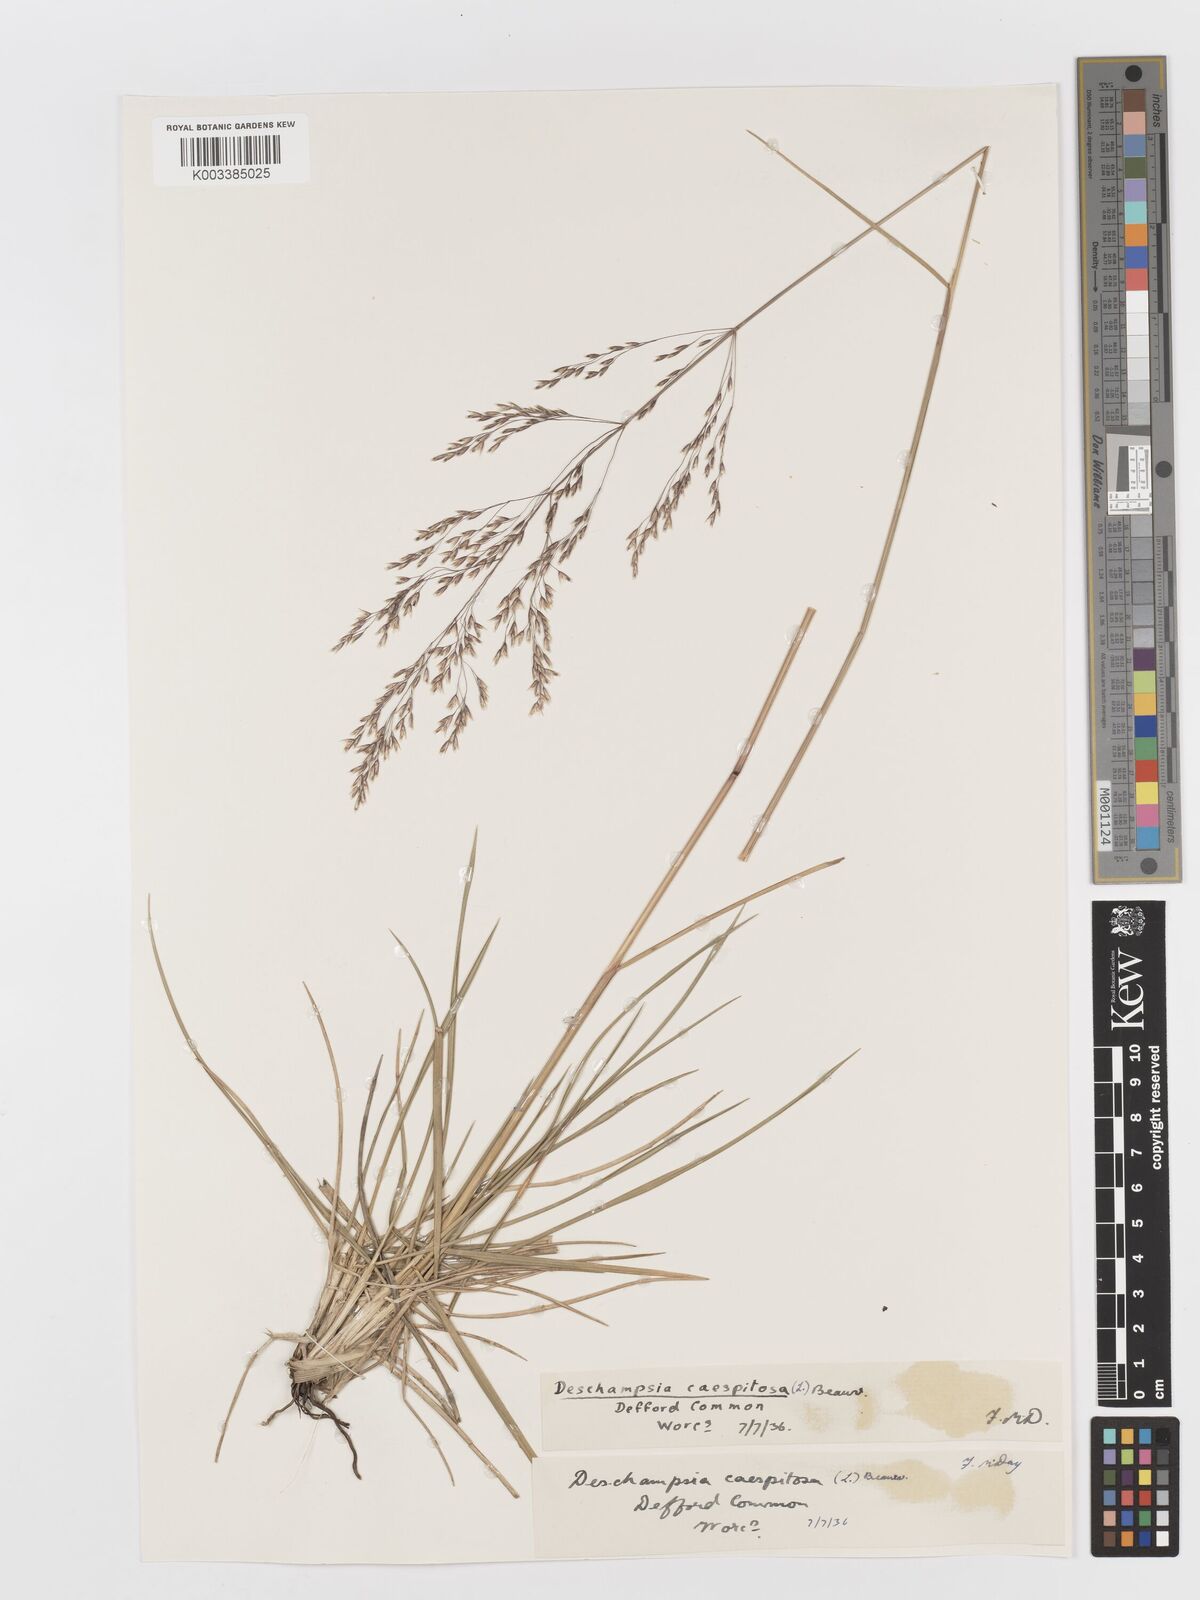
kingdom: Plantae
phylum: Tracheophyta
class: Liliopsida
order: Poales
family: Poaceae
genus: Deschampsia
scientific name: Deschampsia cespitosa
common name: Tufted hair-grass
